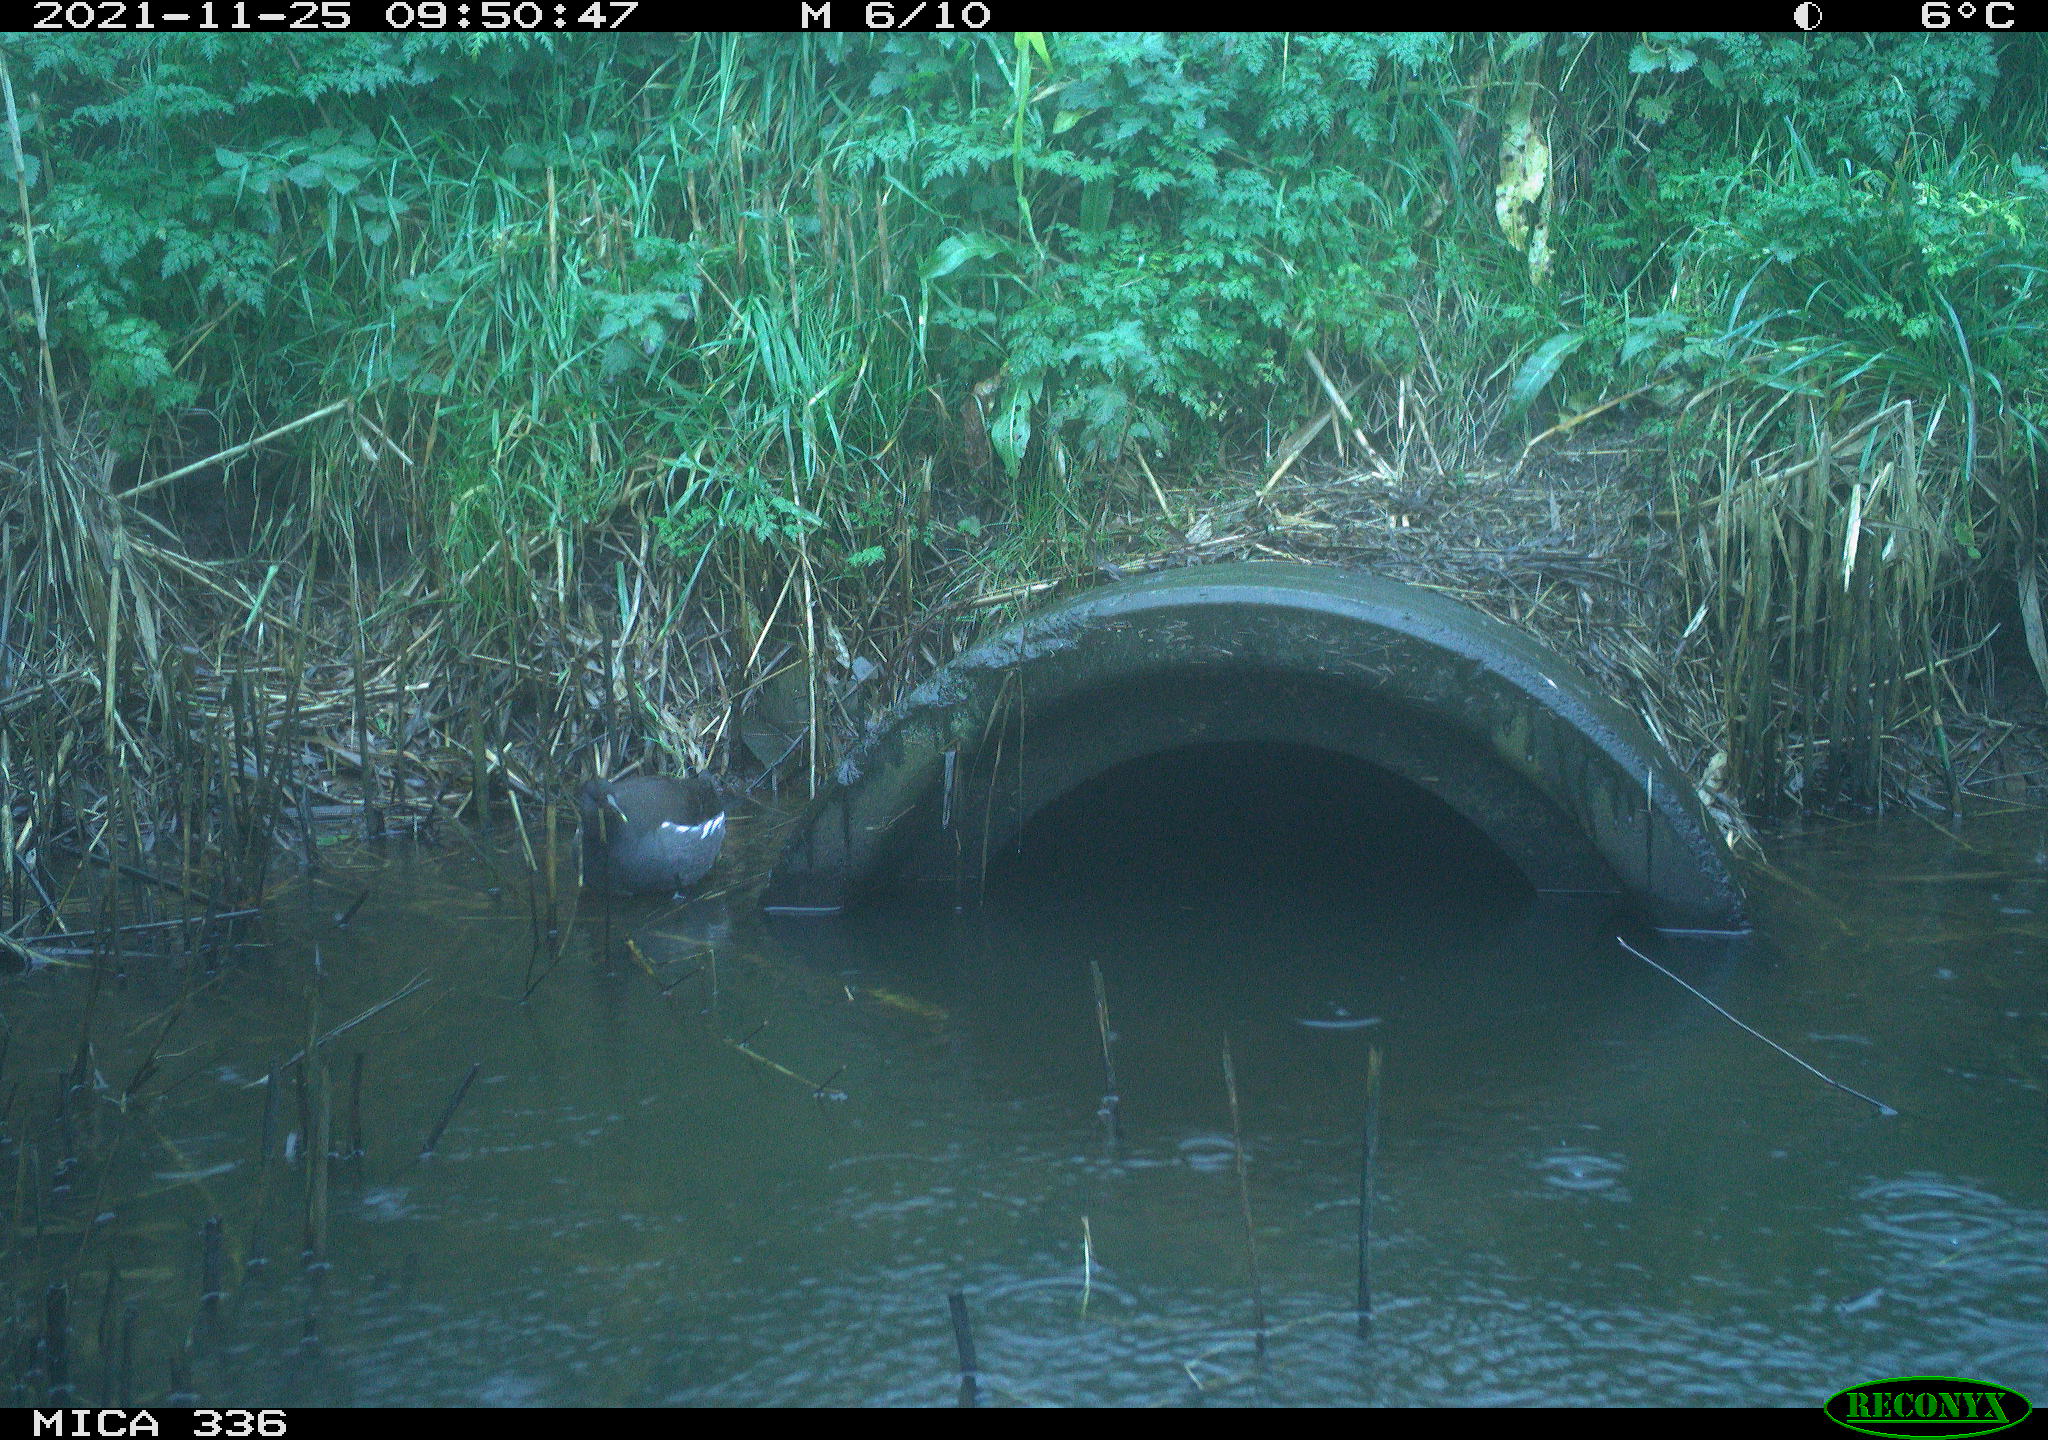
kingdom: Animalia
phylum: Chordata
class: Aves
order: Gruiformes
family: Rallidae
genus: Gallinula
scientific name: Gallinula chloropus
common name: Common moorhen
